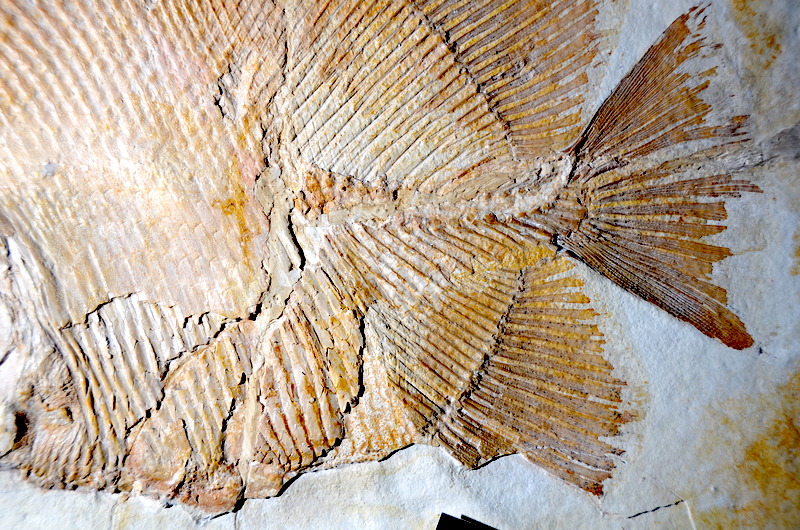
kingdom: Animalia
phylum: Chordata
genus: Apomesodon
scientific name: Apomesodon gibbosus
